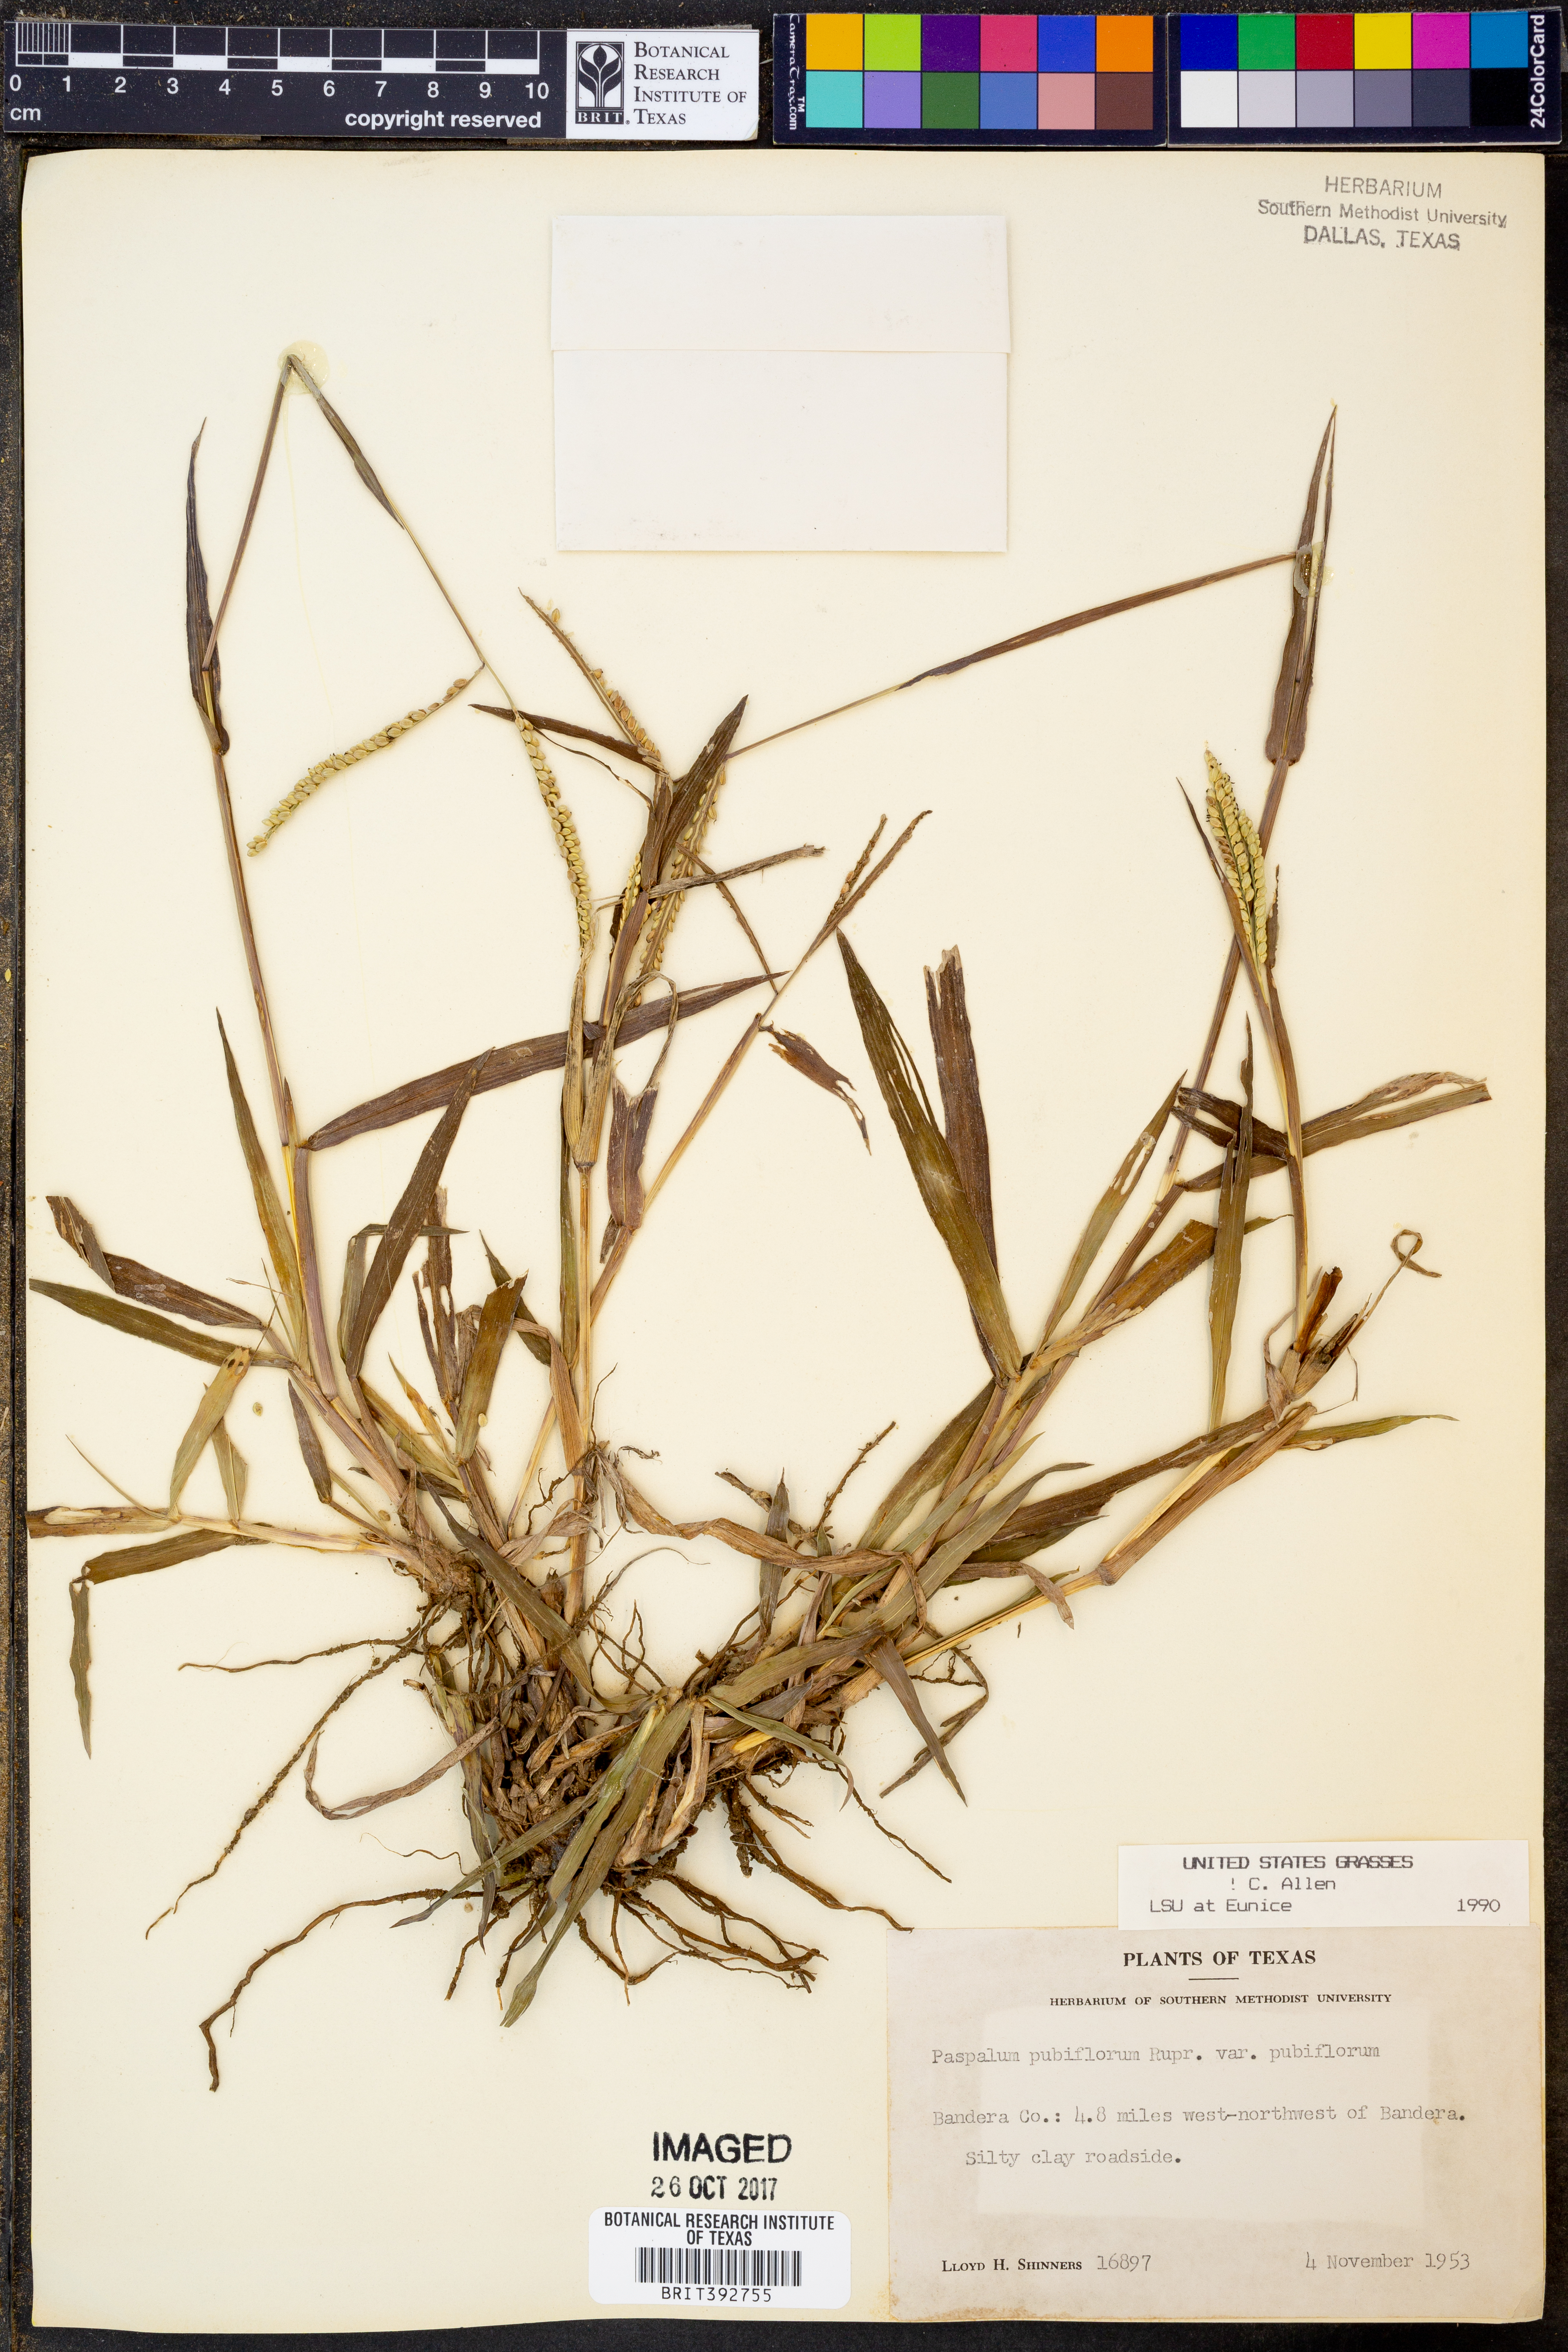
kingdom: Plantae
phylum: Tracheophyta
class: Liliopsida
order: Poales
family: Poaceae
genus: Paspalum
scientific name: Paspalum pubiflorum
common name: Hairy-seed paspalum
